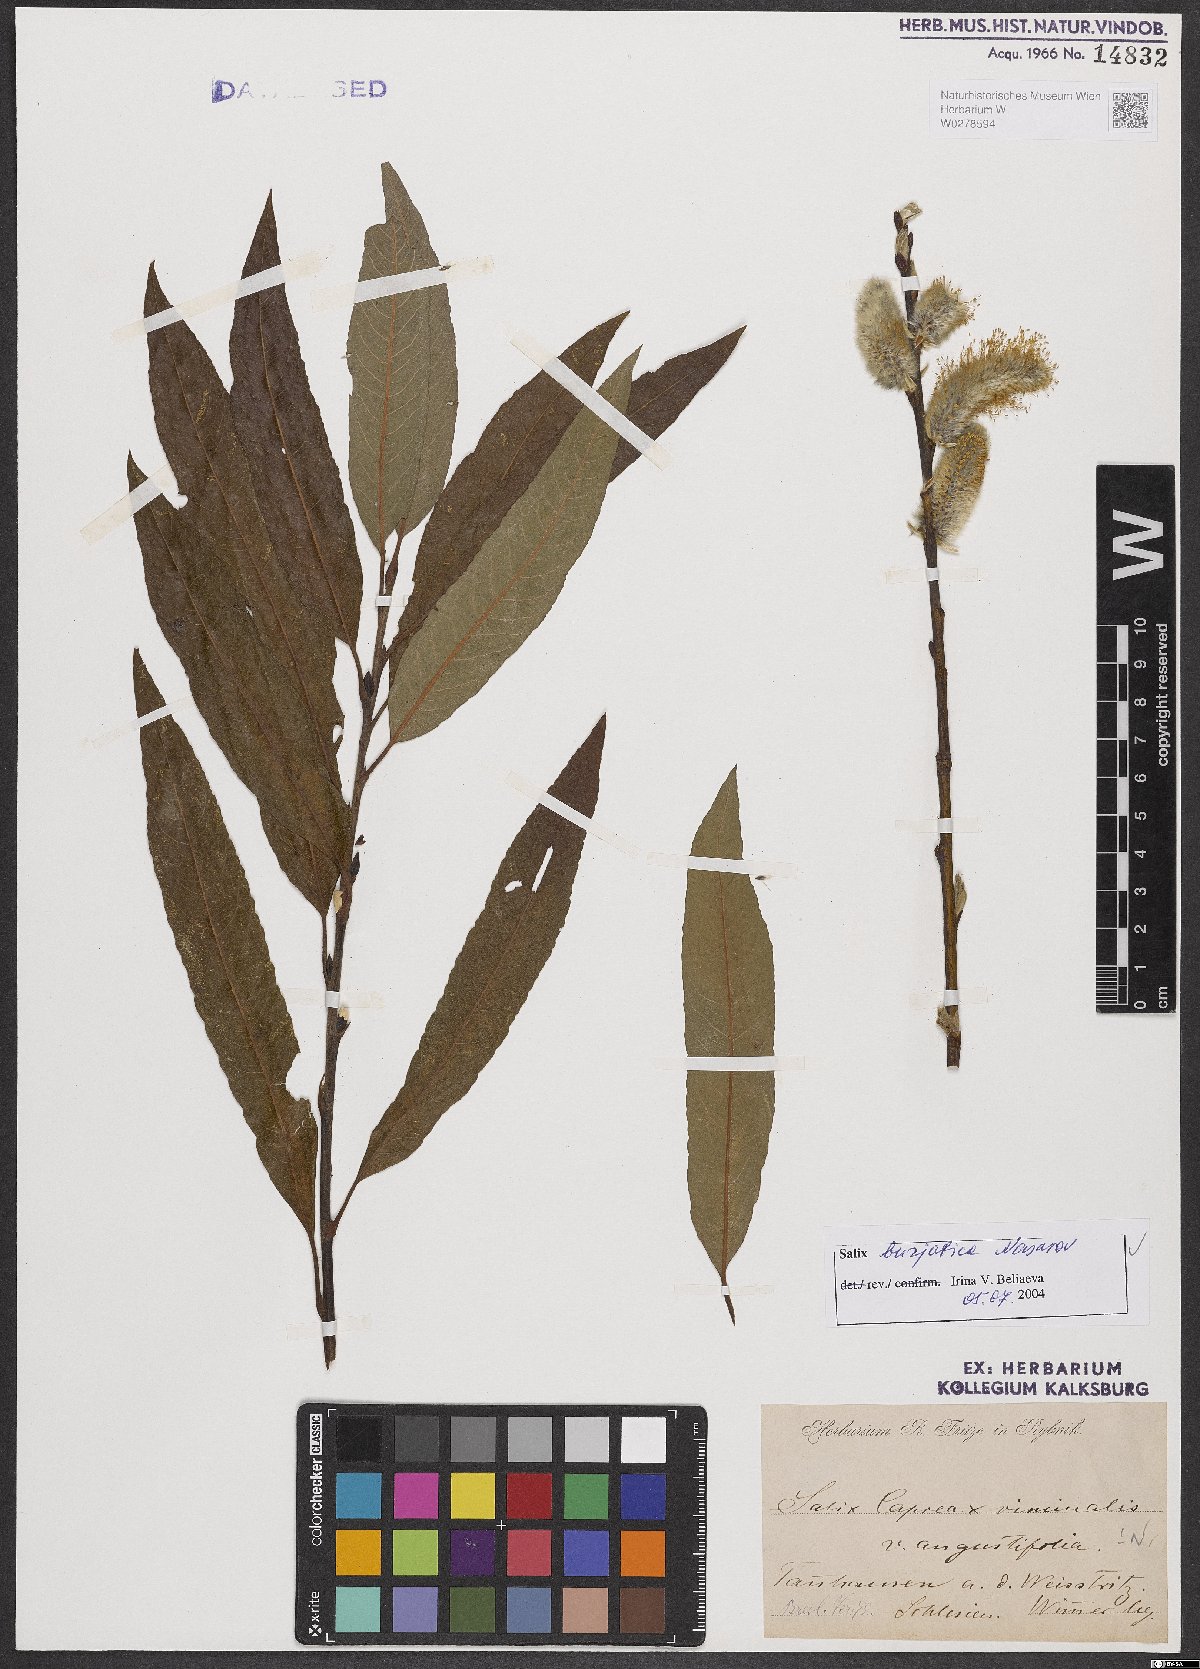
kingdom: Plantae
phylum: Tracheophyta
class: Magnoliopsida
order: Malpighiales
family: Salicaceae
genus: Salix
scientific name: Salix gmelinii
